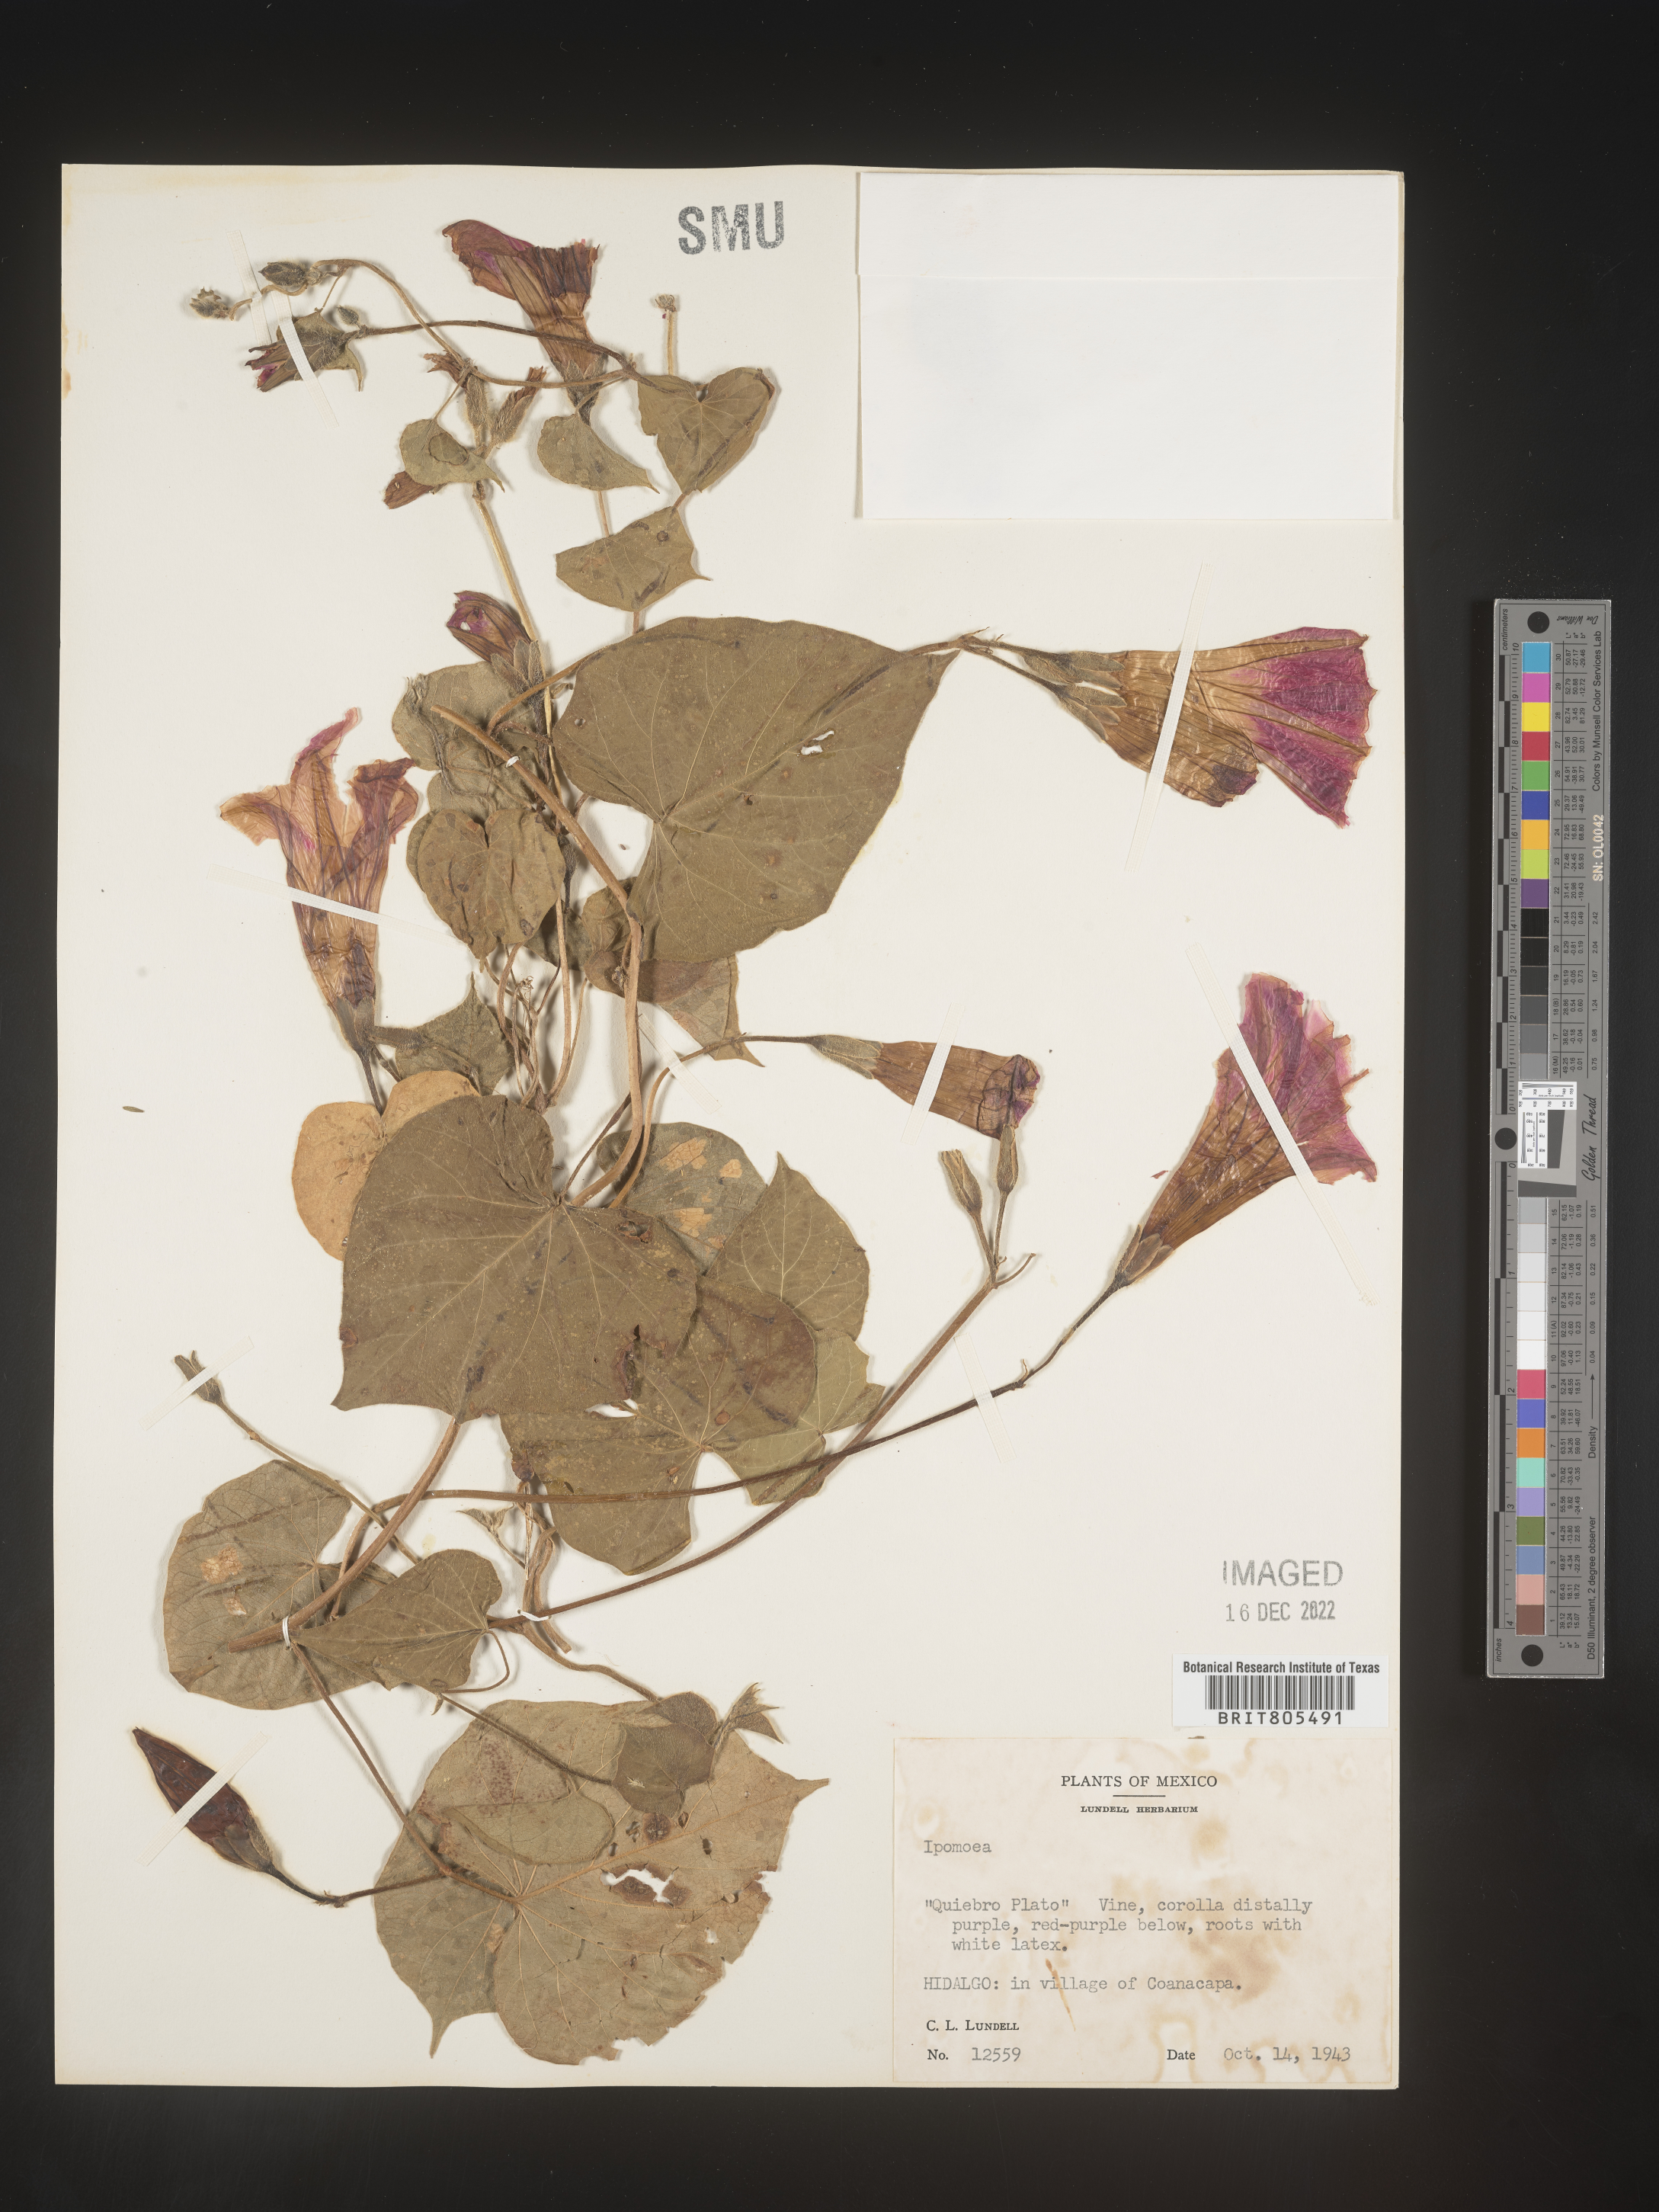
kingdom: Plantae
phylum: Tracheophyta
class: Magnoliopsida
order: Solanales
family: Convolvulaceae
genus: Ipomoea
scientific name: Ipomoea
